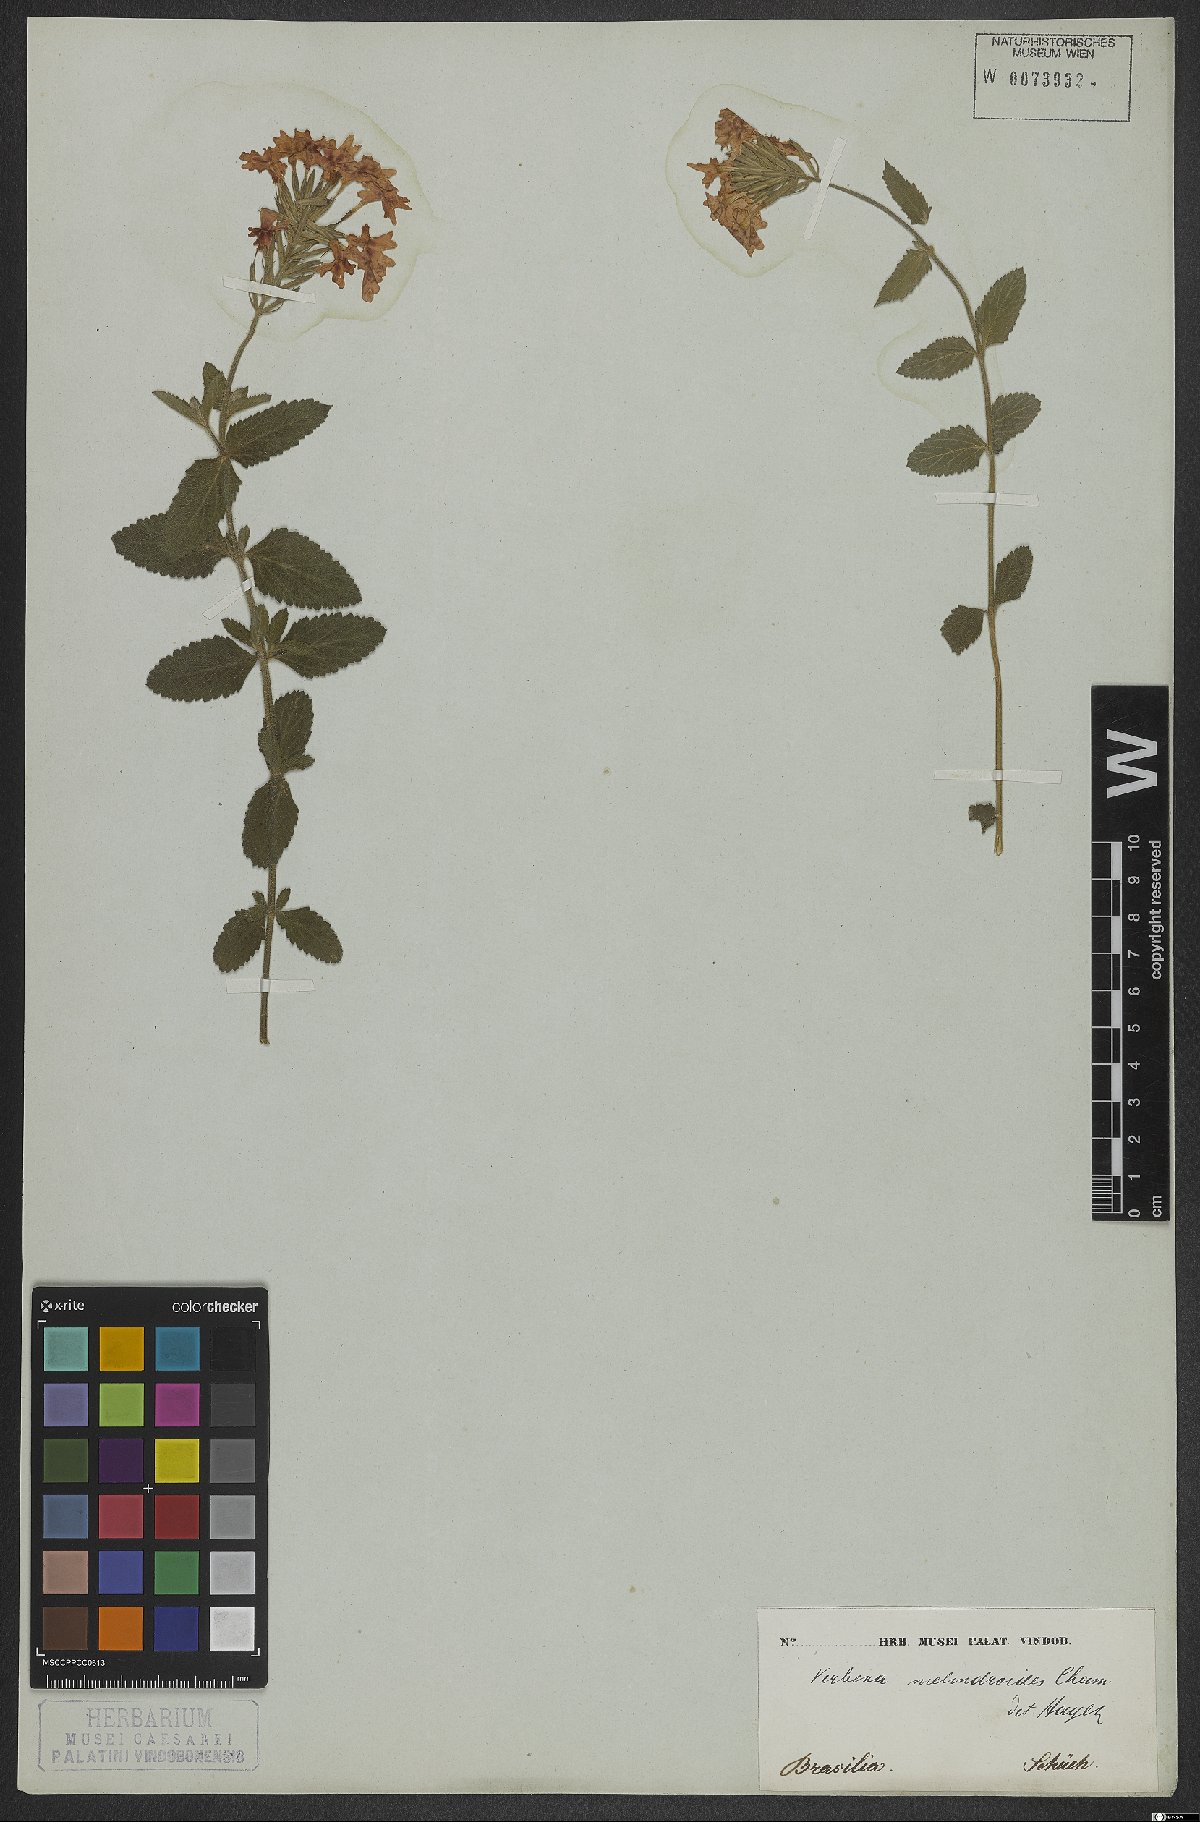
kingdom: Plantae
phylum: Tracheophyta
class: Magnoliopsida
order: Lamiales
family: Verbenaceae
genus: Verbena
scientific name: Verbena peruviana
